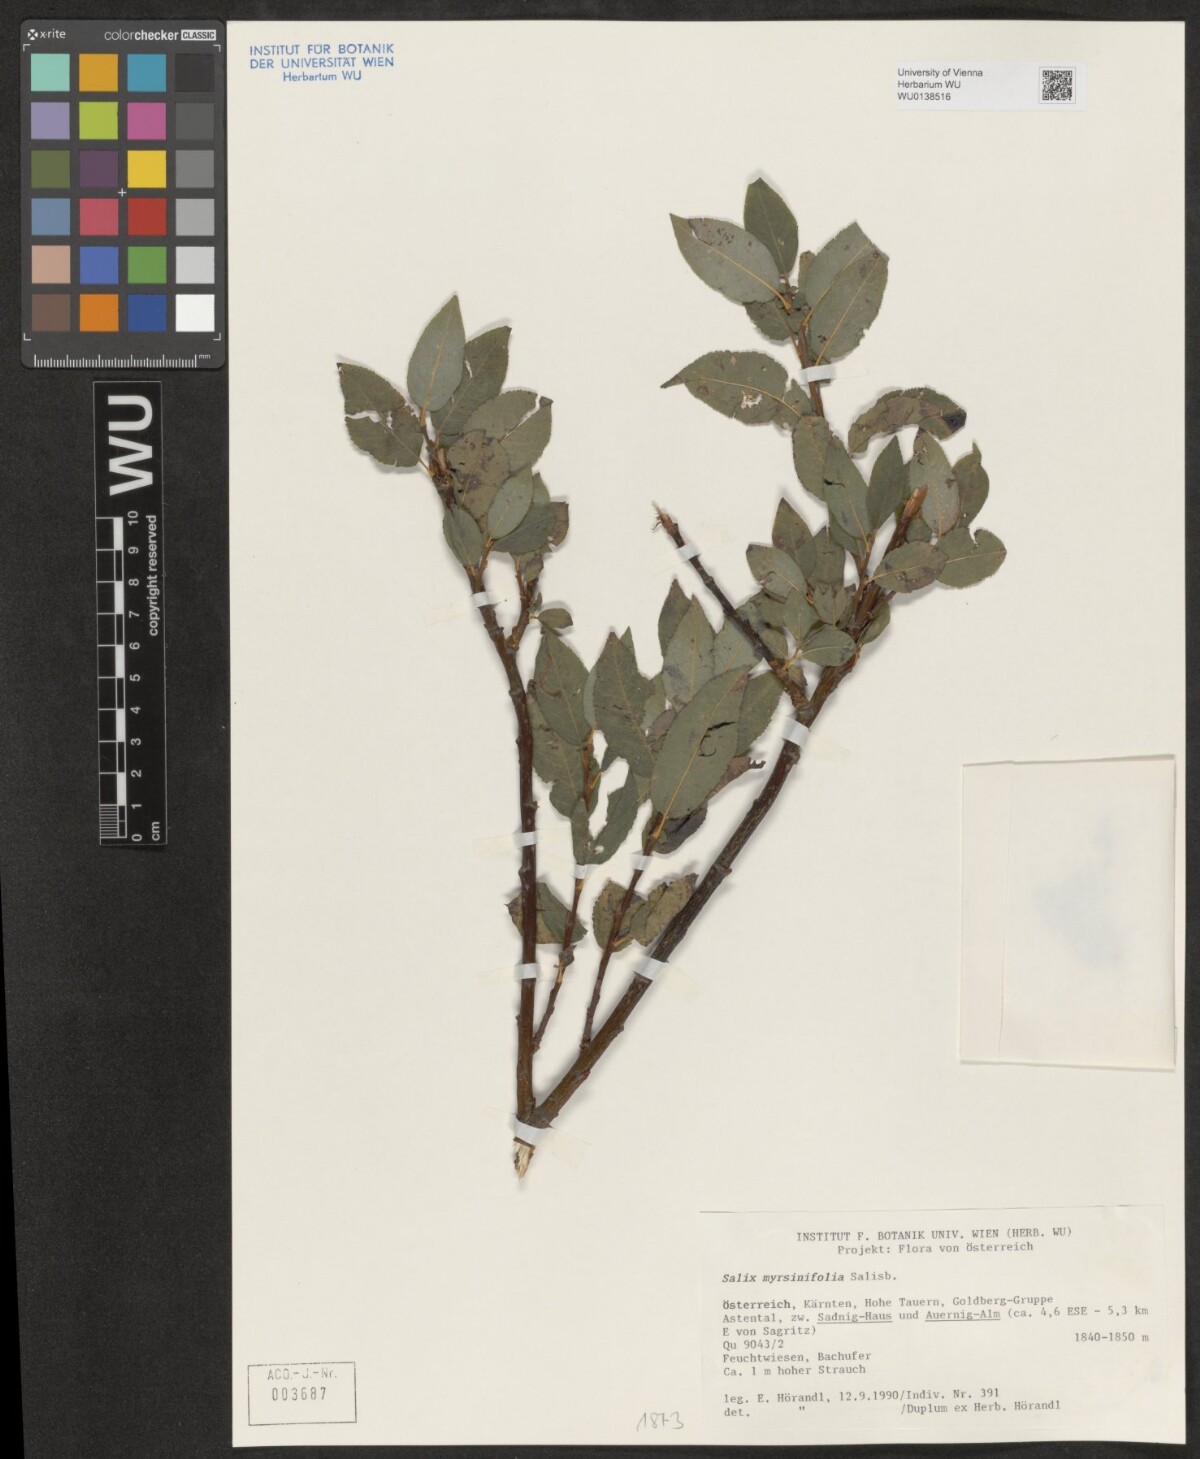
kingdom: Plantae
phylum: Tracheophyta
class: Magnoliopsida
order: Malpighiales
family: Salicaceae
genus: Salix
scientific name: Salix myrsinifolia
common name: Dark-leaved willow
